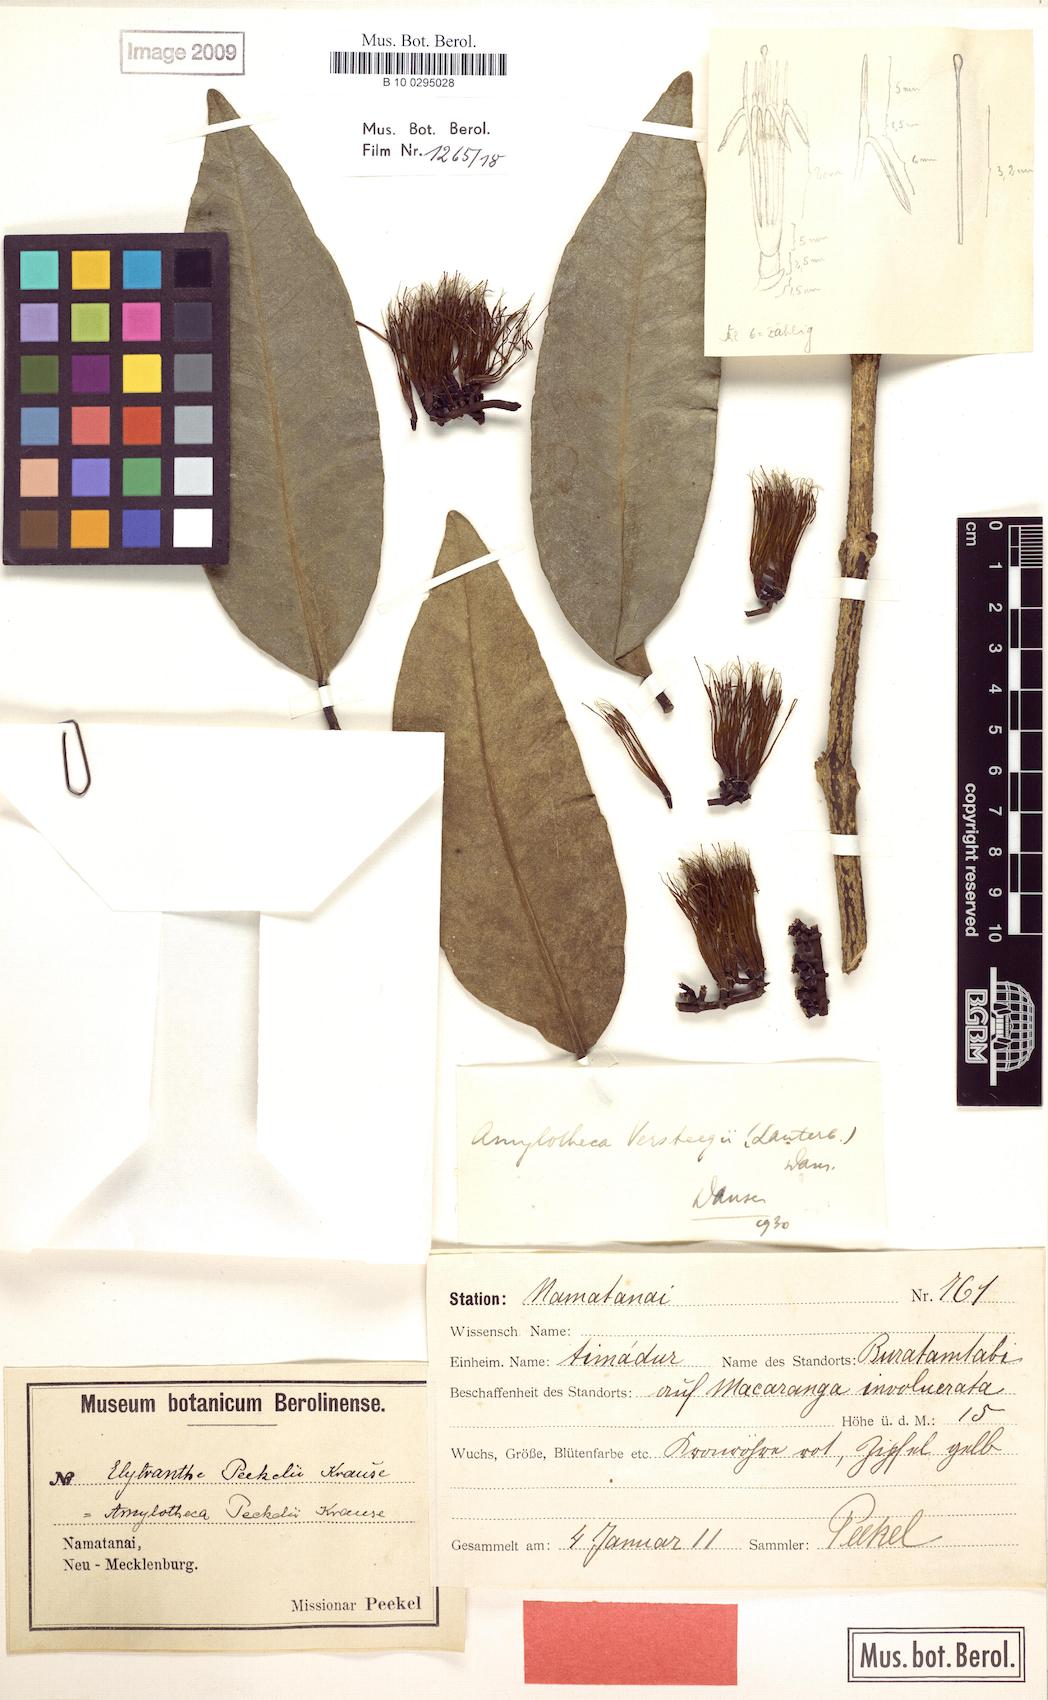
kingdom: Plantae
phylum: Tracheophyta
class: Magnoliopsida
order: Santalales
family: Loranthaceae
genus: Decaisnina
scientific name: Decaisnina hollrungii
